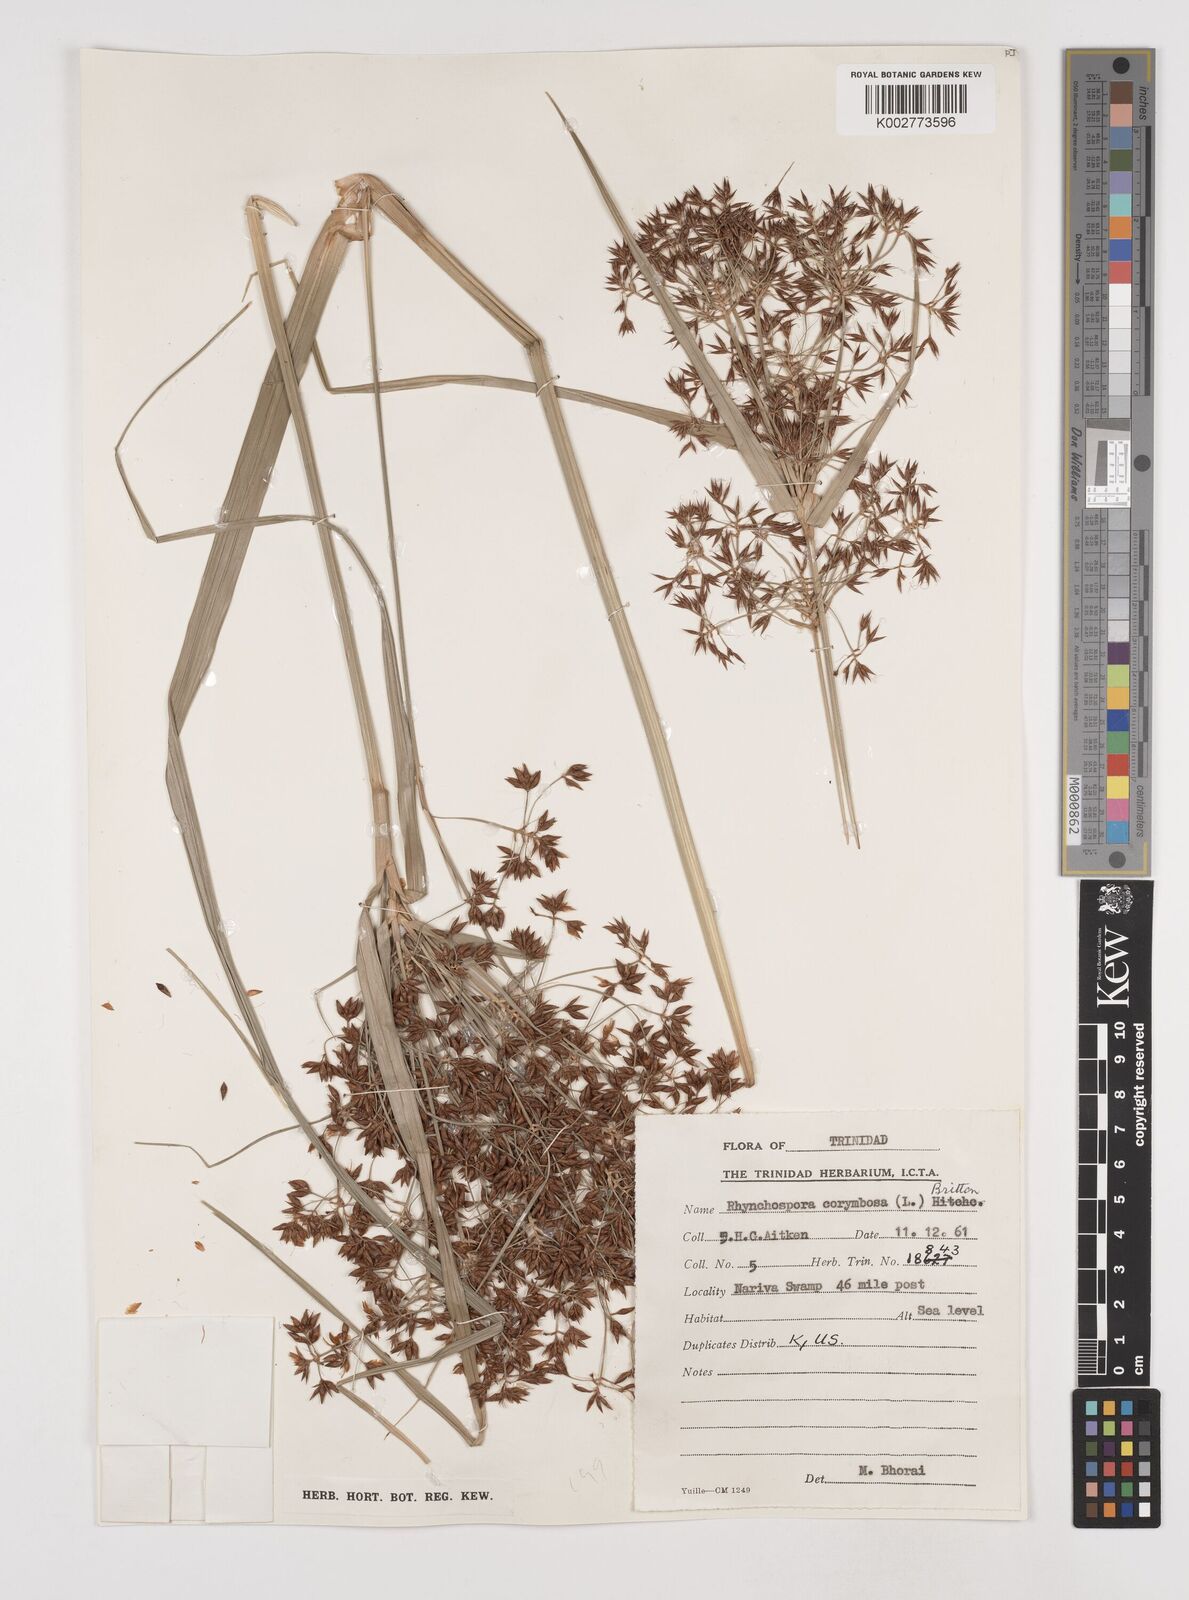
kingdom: Plantae
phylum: Tracheophyta
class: Liliopsida
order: Poales
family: Cyperaceae
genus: Rhynchospora
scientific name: Rhynchospora corymbosa
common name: Golden beak sedge
